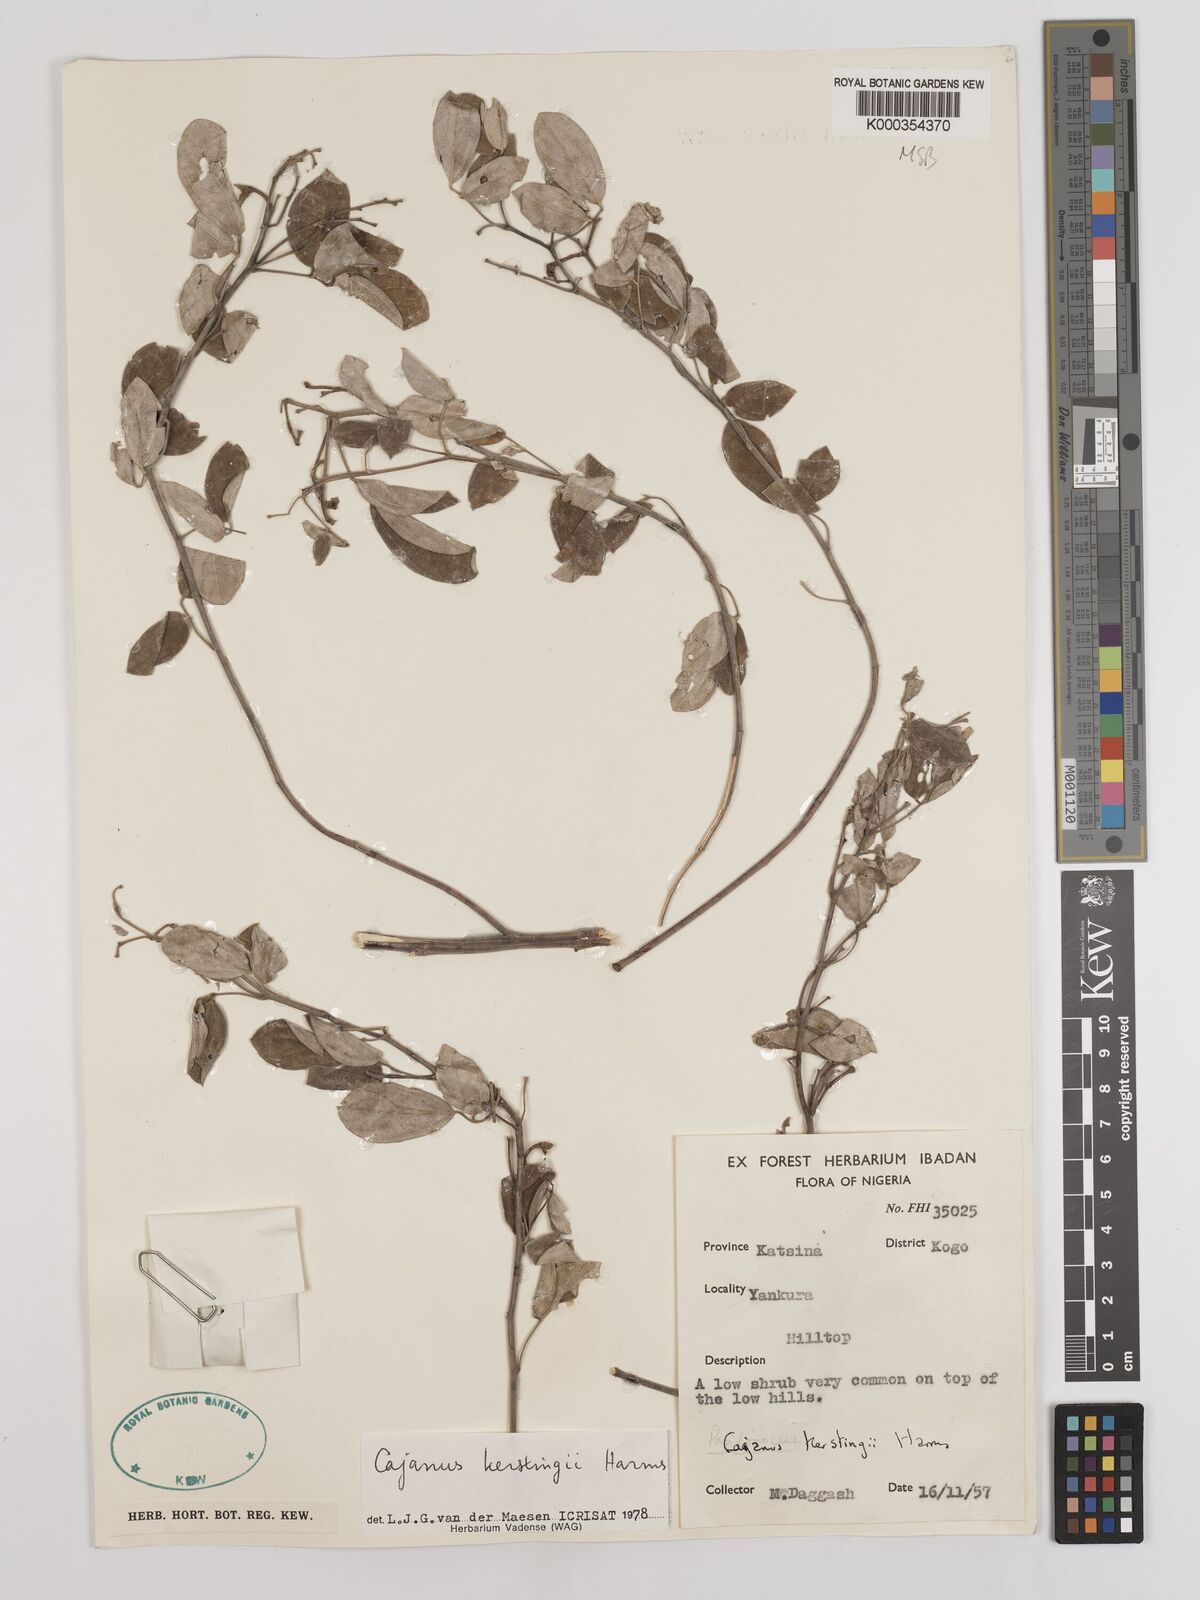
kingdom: Plantae
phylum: Tracheophyta
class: Magnoliopsida
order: Fabales
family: Fabaceae
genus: Cajanus
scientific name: Cajanus kerstingii
